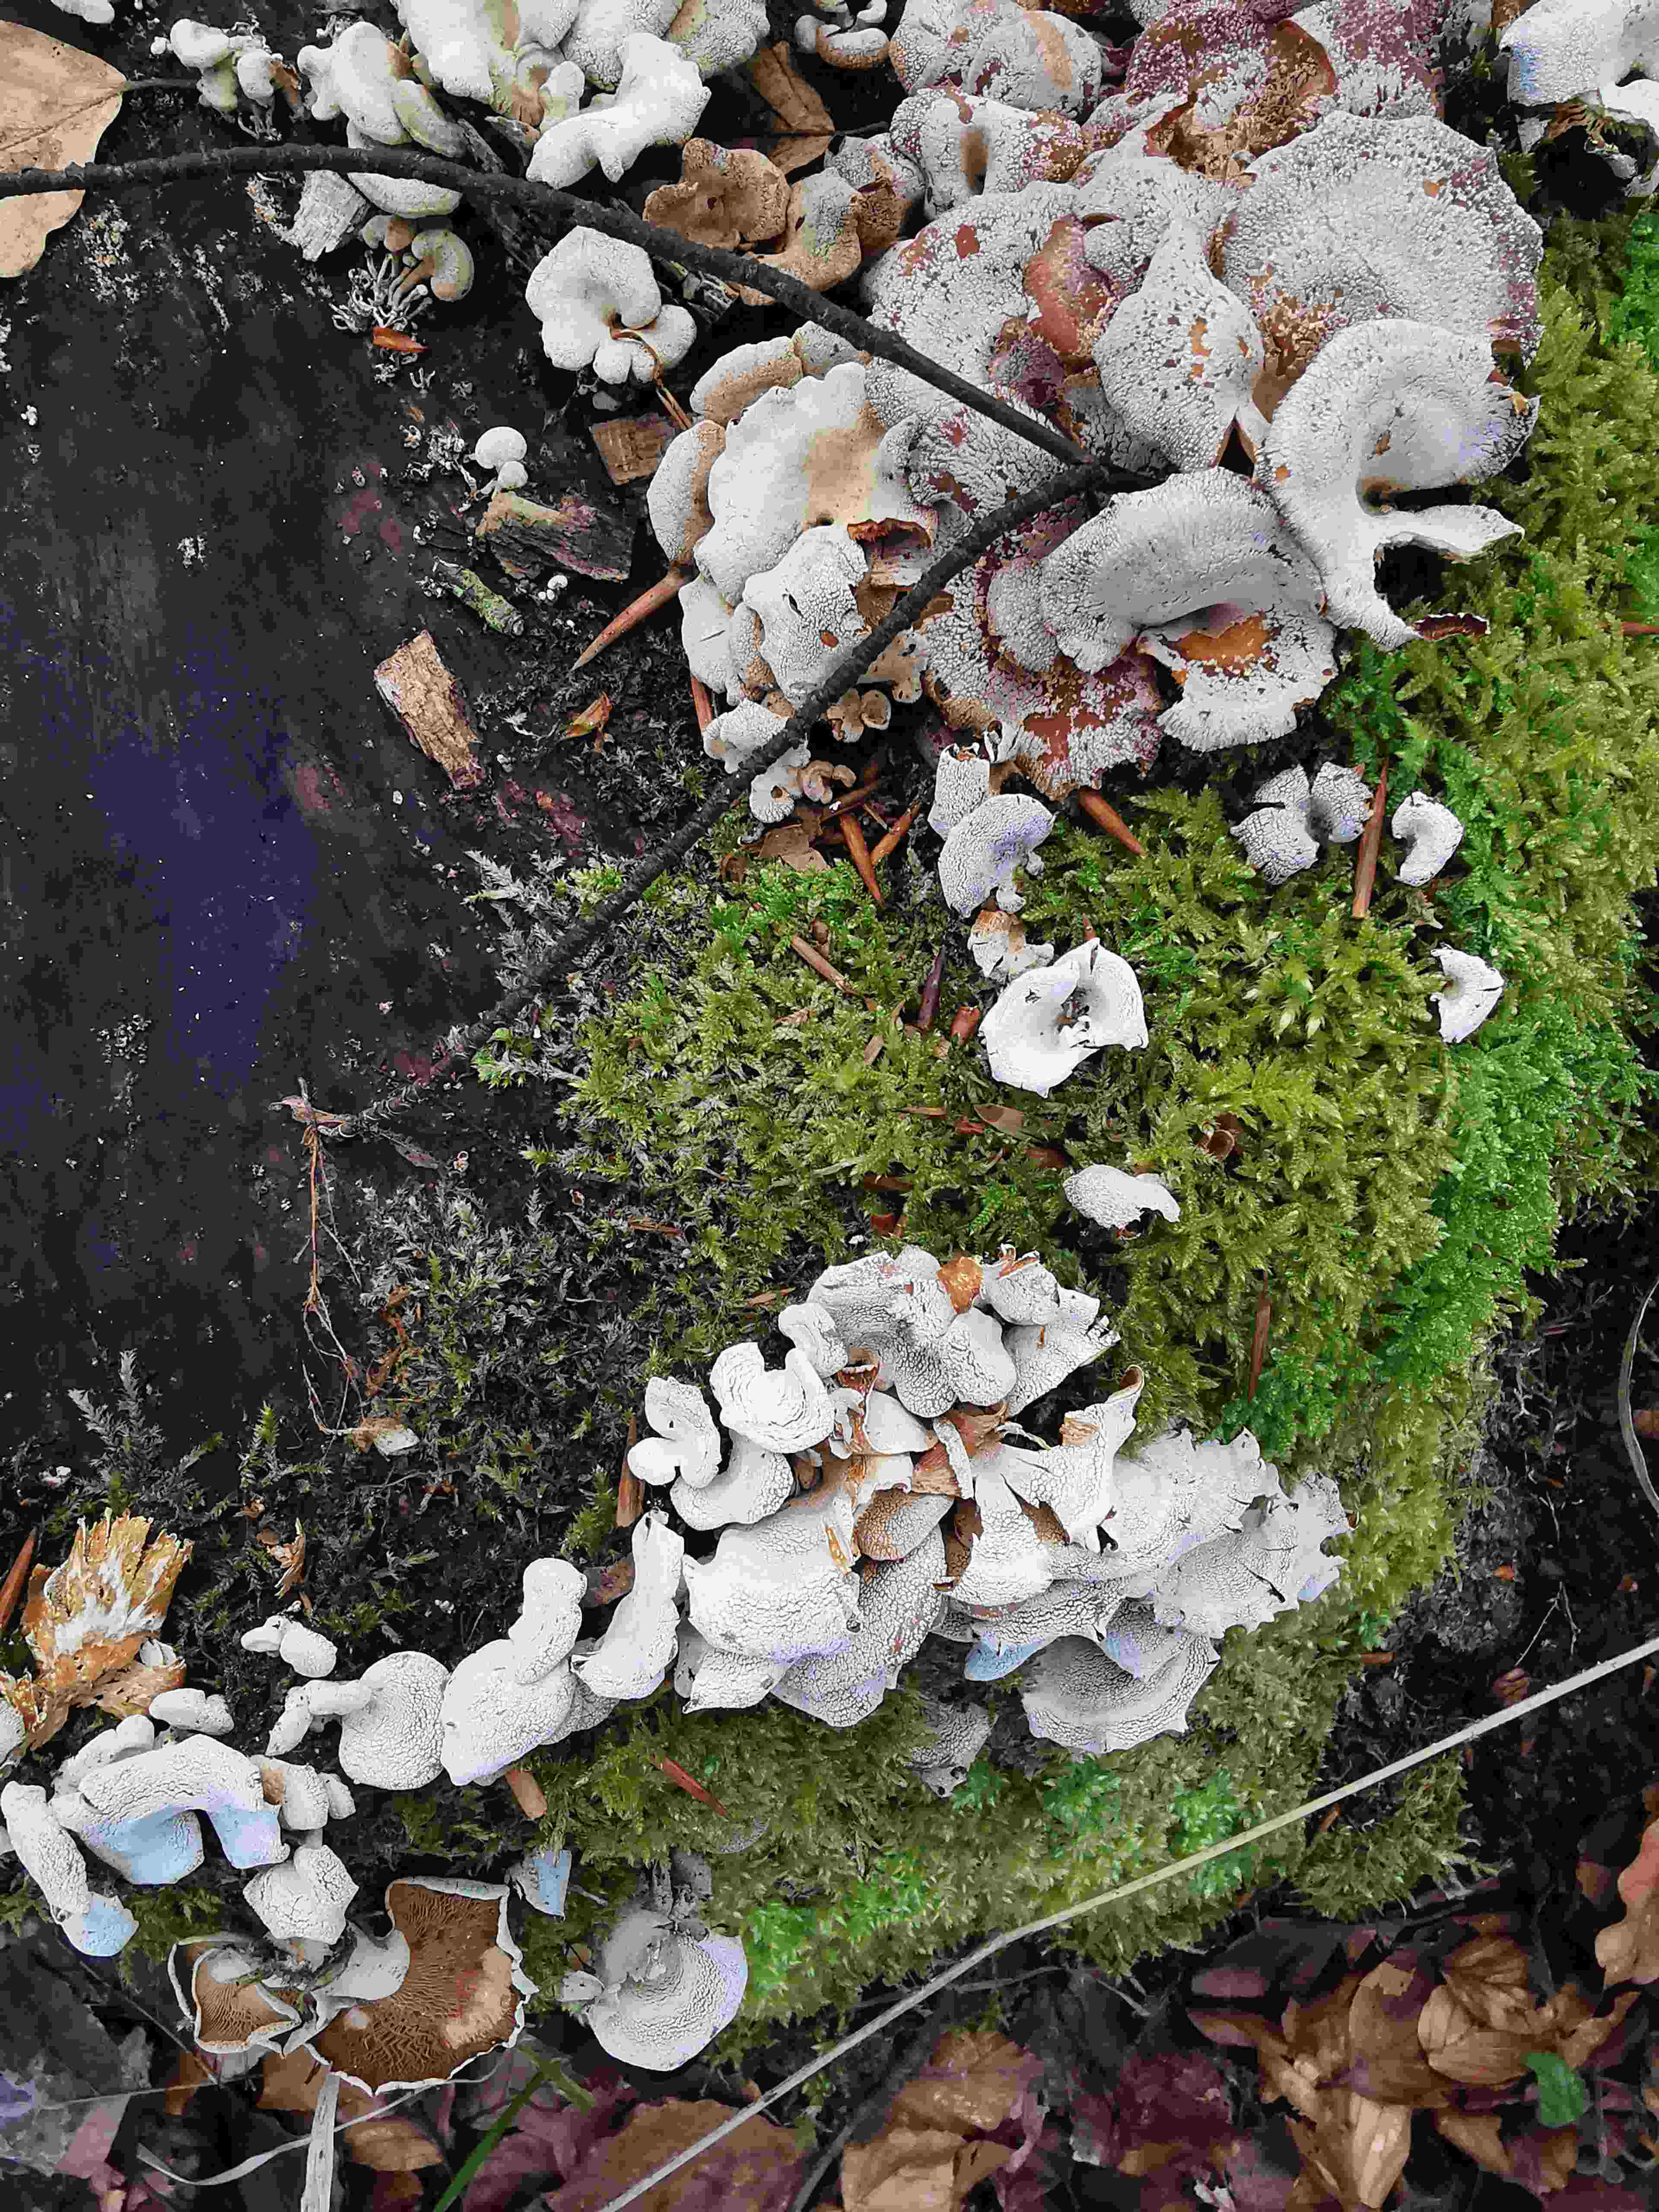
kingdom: Fungi
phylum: Basidiomycota
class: Agaricomycetes
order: Agaricales
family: Mycenaceae
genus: Panellus
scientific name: Panellus stipticus
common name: kliddet epaulethat
